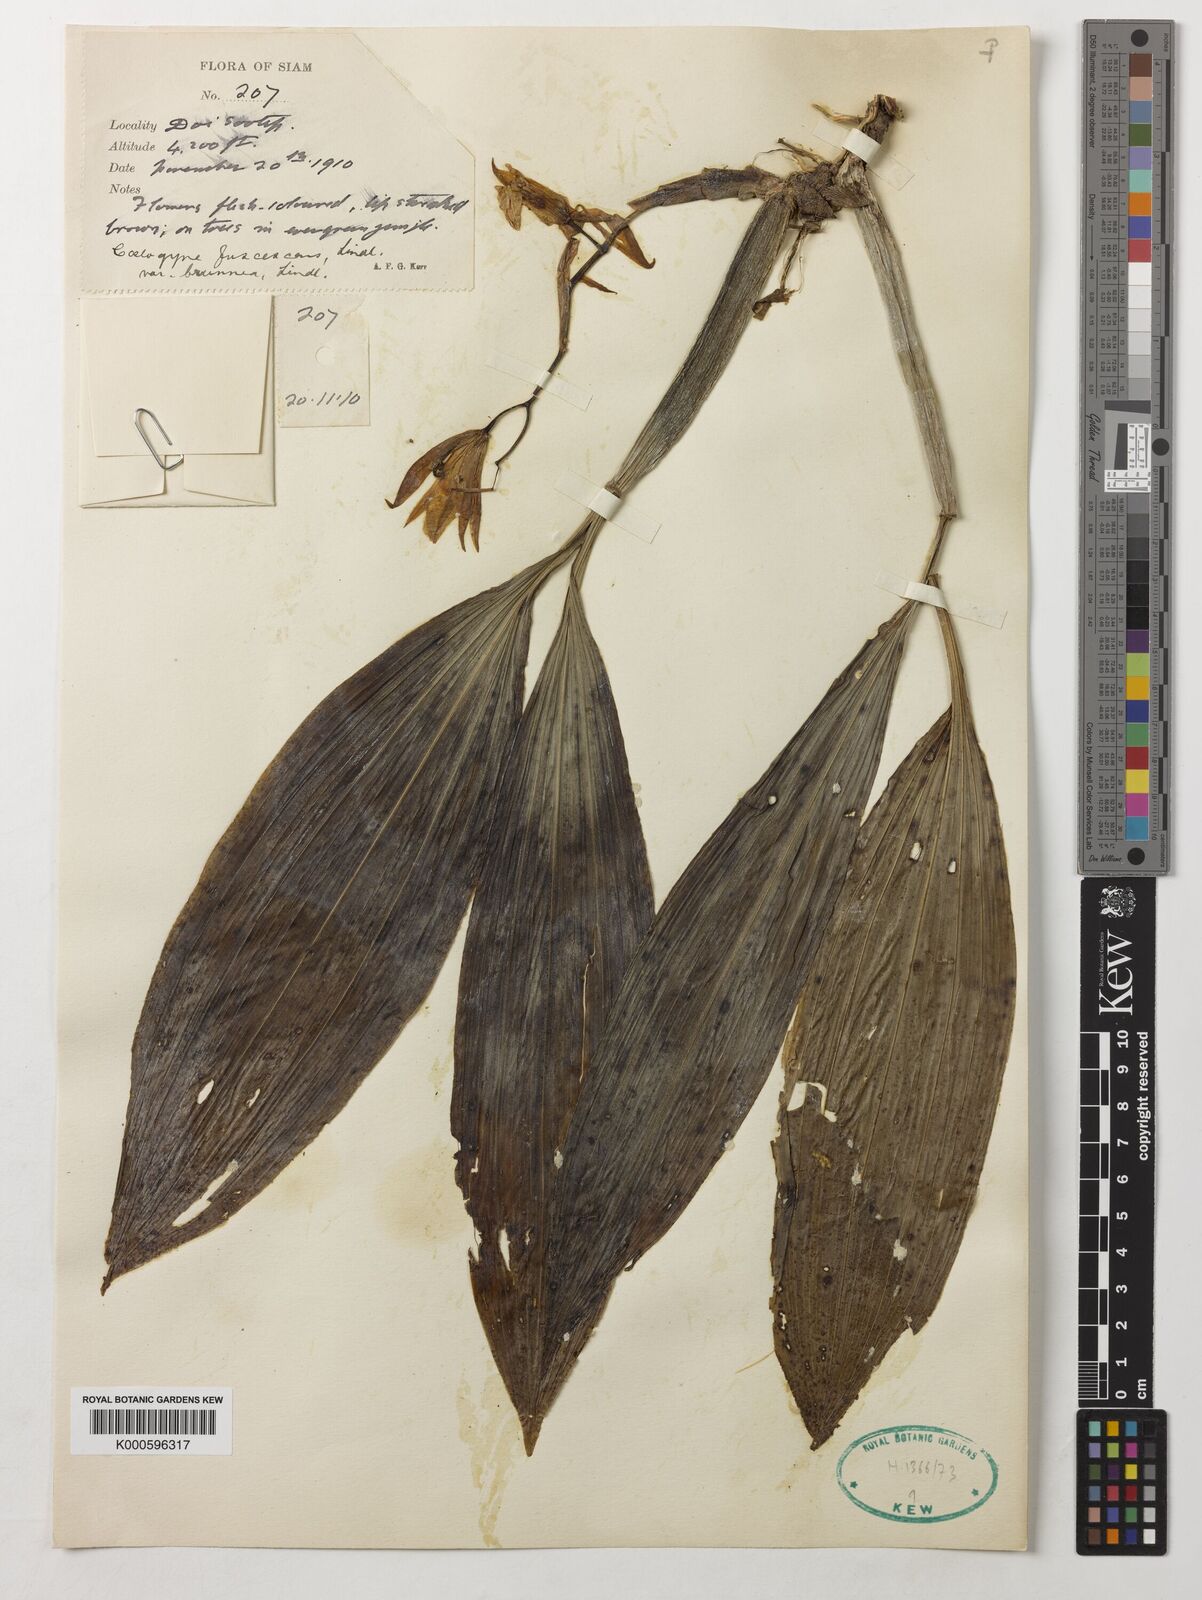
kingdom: Plantae
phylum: Tracheophyta
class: Liliopsida
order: Asparagales
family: Orchidaceae
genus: Coelogyne
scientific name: Coelogyne fuscescens
